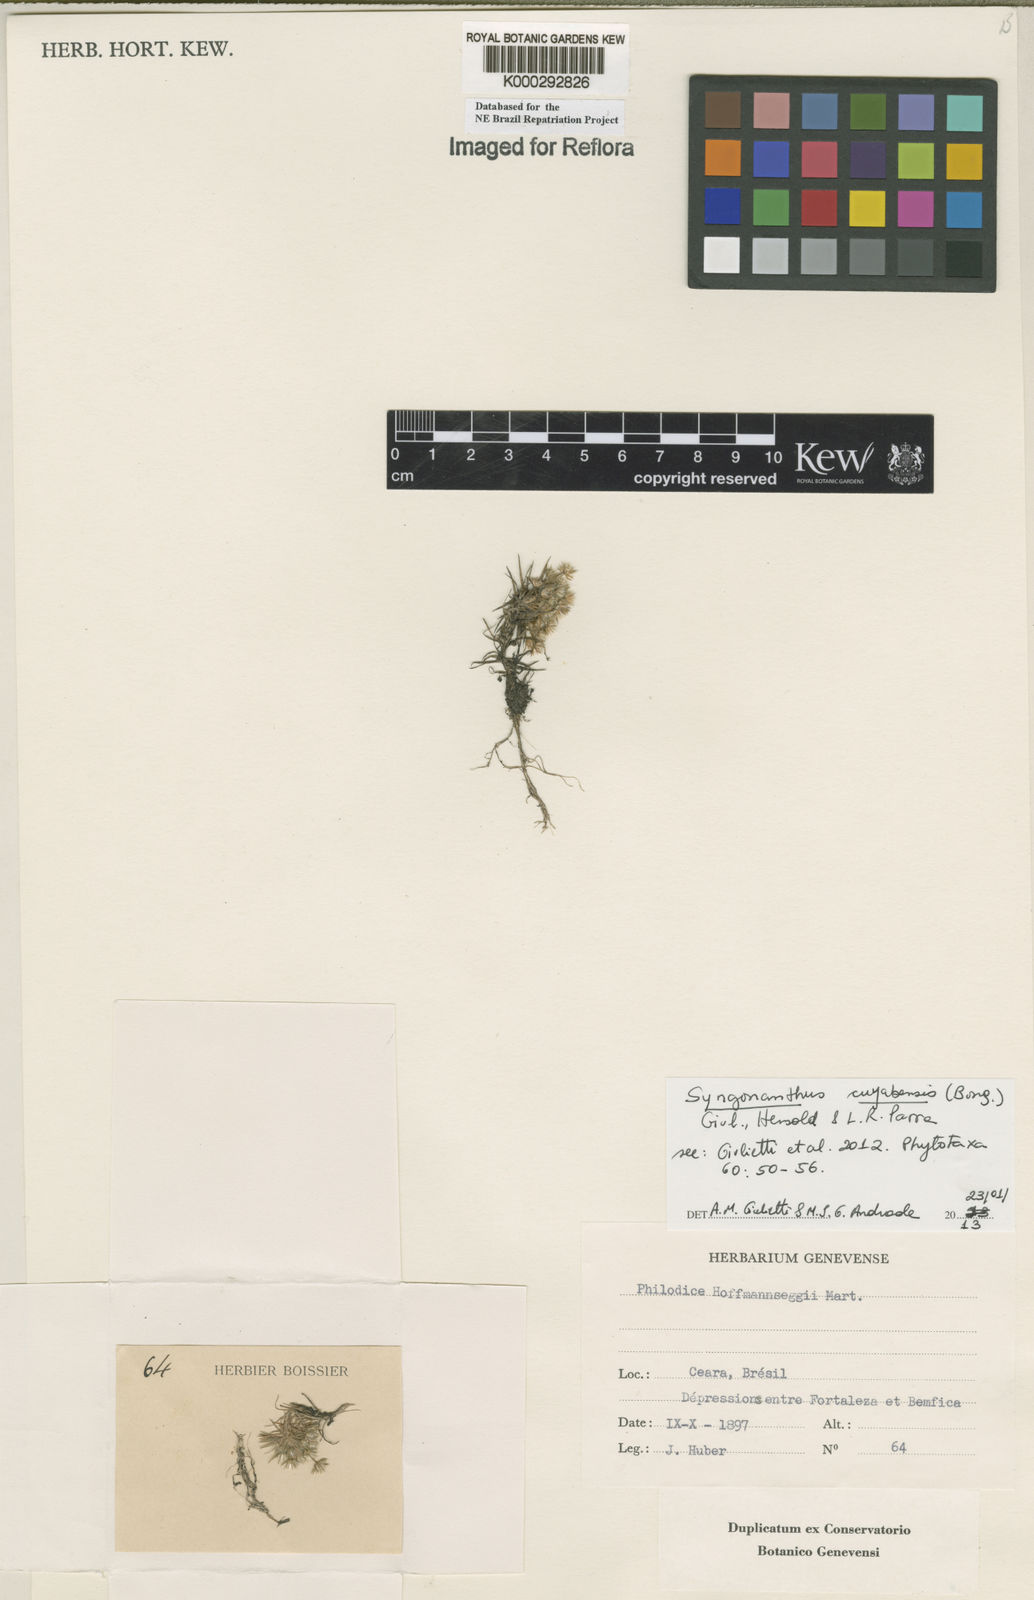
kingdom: Plantae
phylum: Tracheophyta
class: Liliopsida
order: Poales
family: Eriocaulaceae
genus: Syngonanthus
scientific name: Syngonanthus cuyabensis
